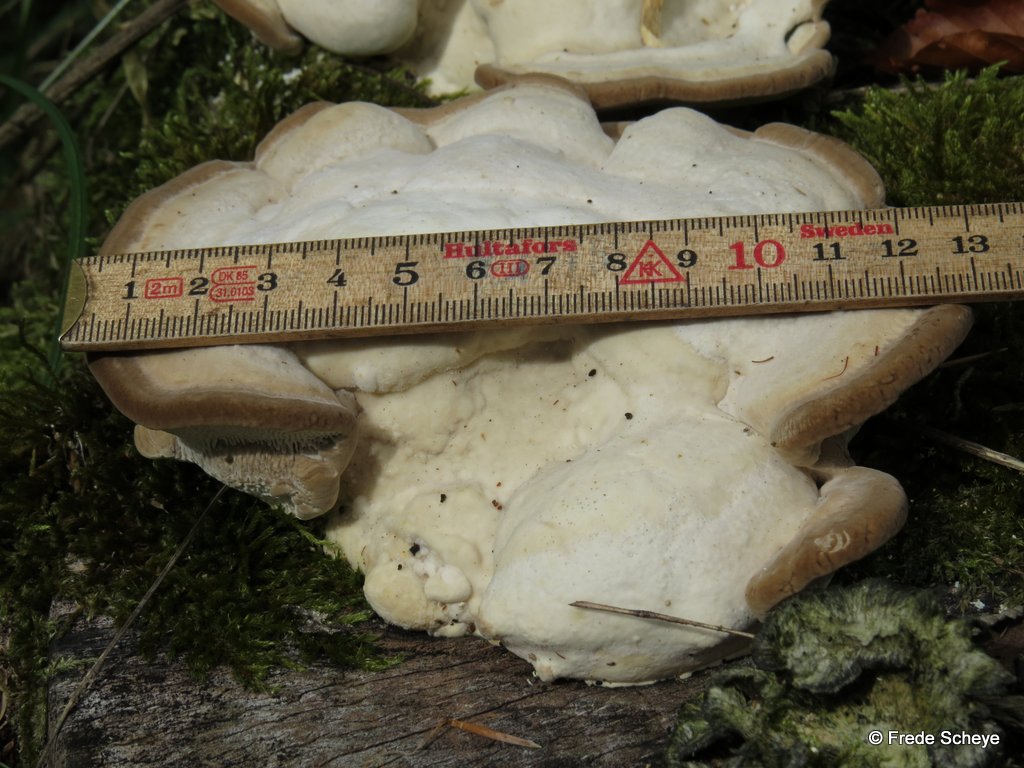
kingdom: Fungi
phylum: Basidiomycota
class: Agaricomycetes
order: Polyporales
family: Polyporaceae
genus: Trametes
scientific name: Trametes gibbosa
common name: puklet læderporesvamp
